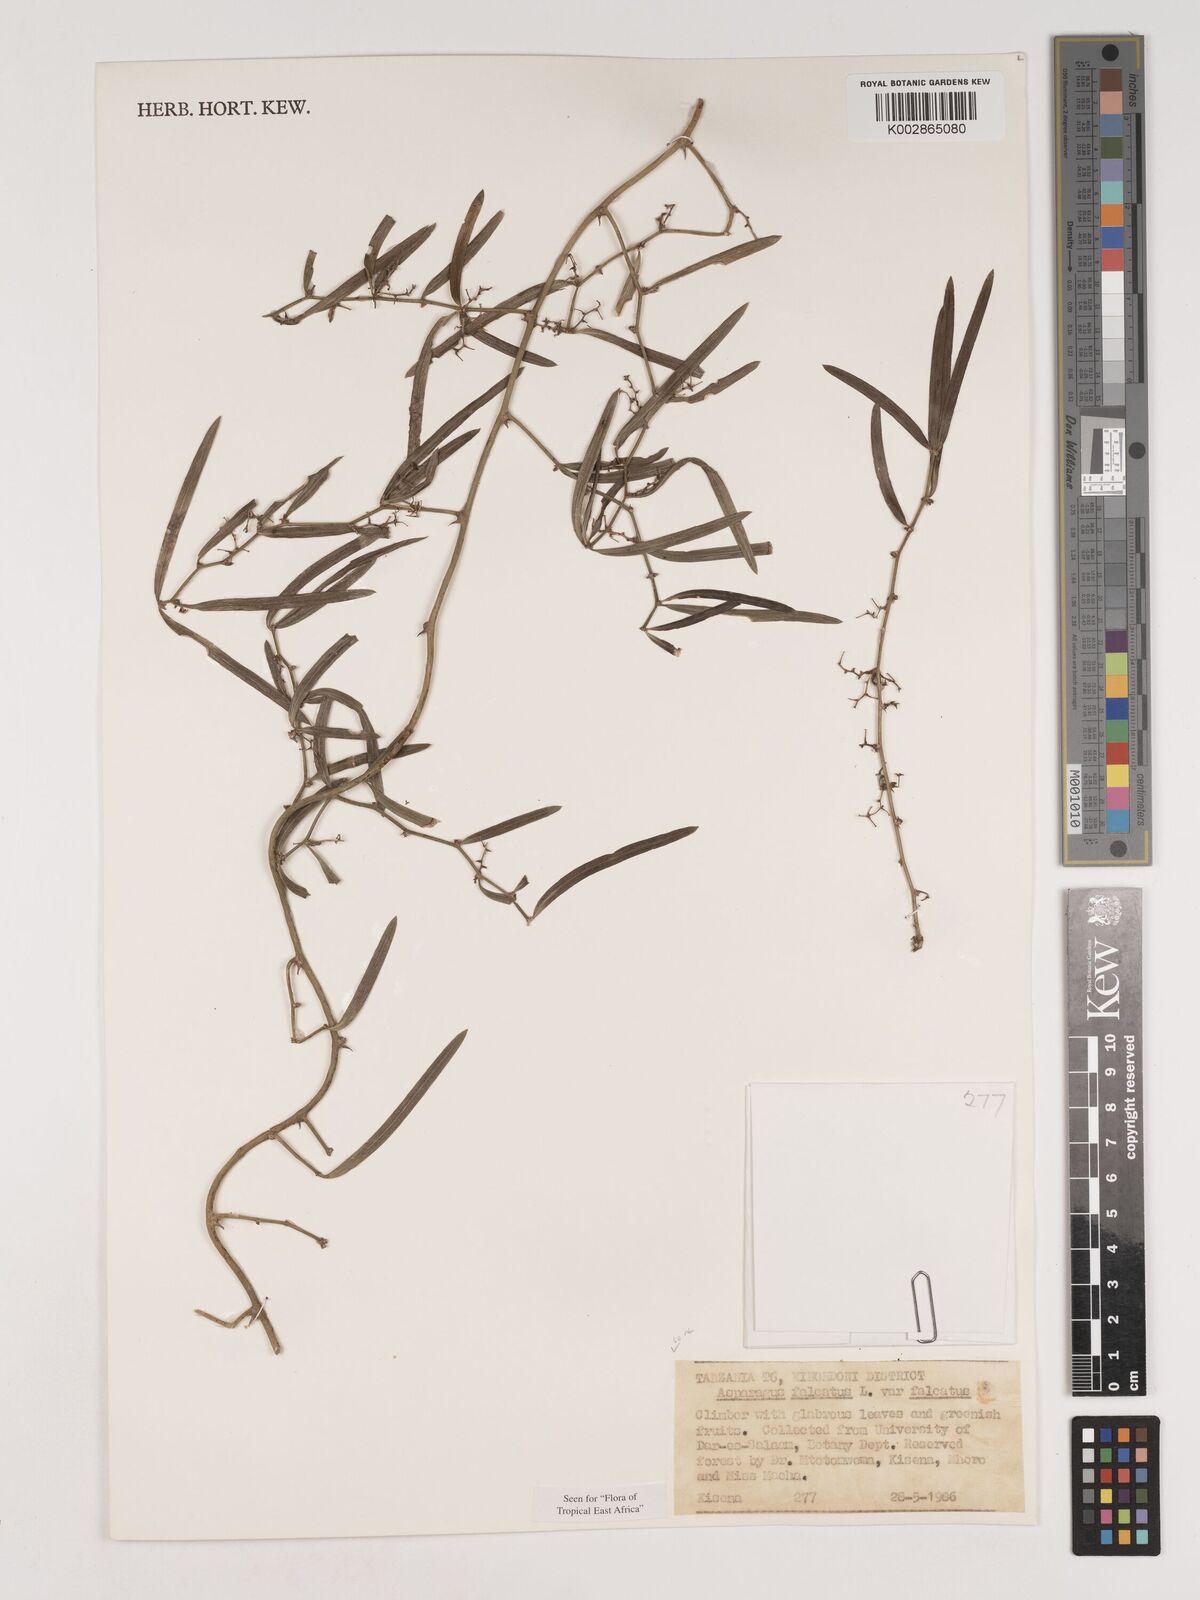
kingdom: Plantae
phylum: Tracheophyta
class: Liliopsida
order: Asparagales
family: Asparagaceae
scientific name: Asparagaceae
